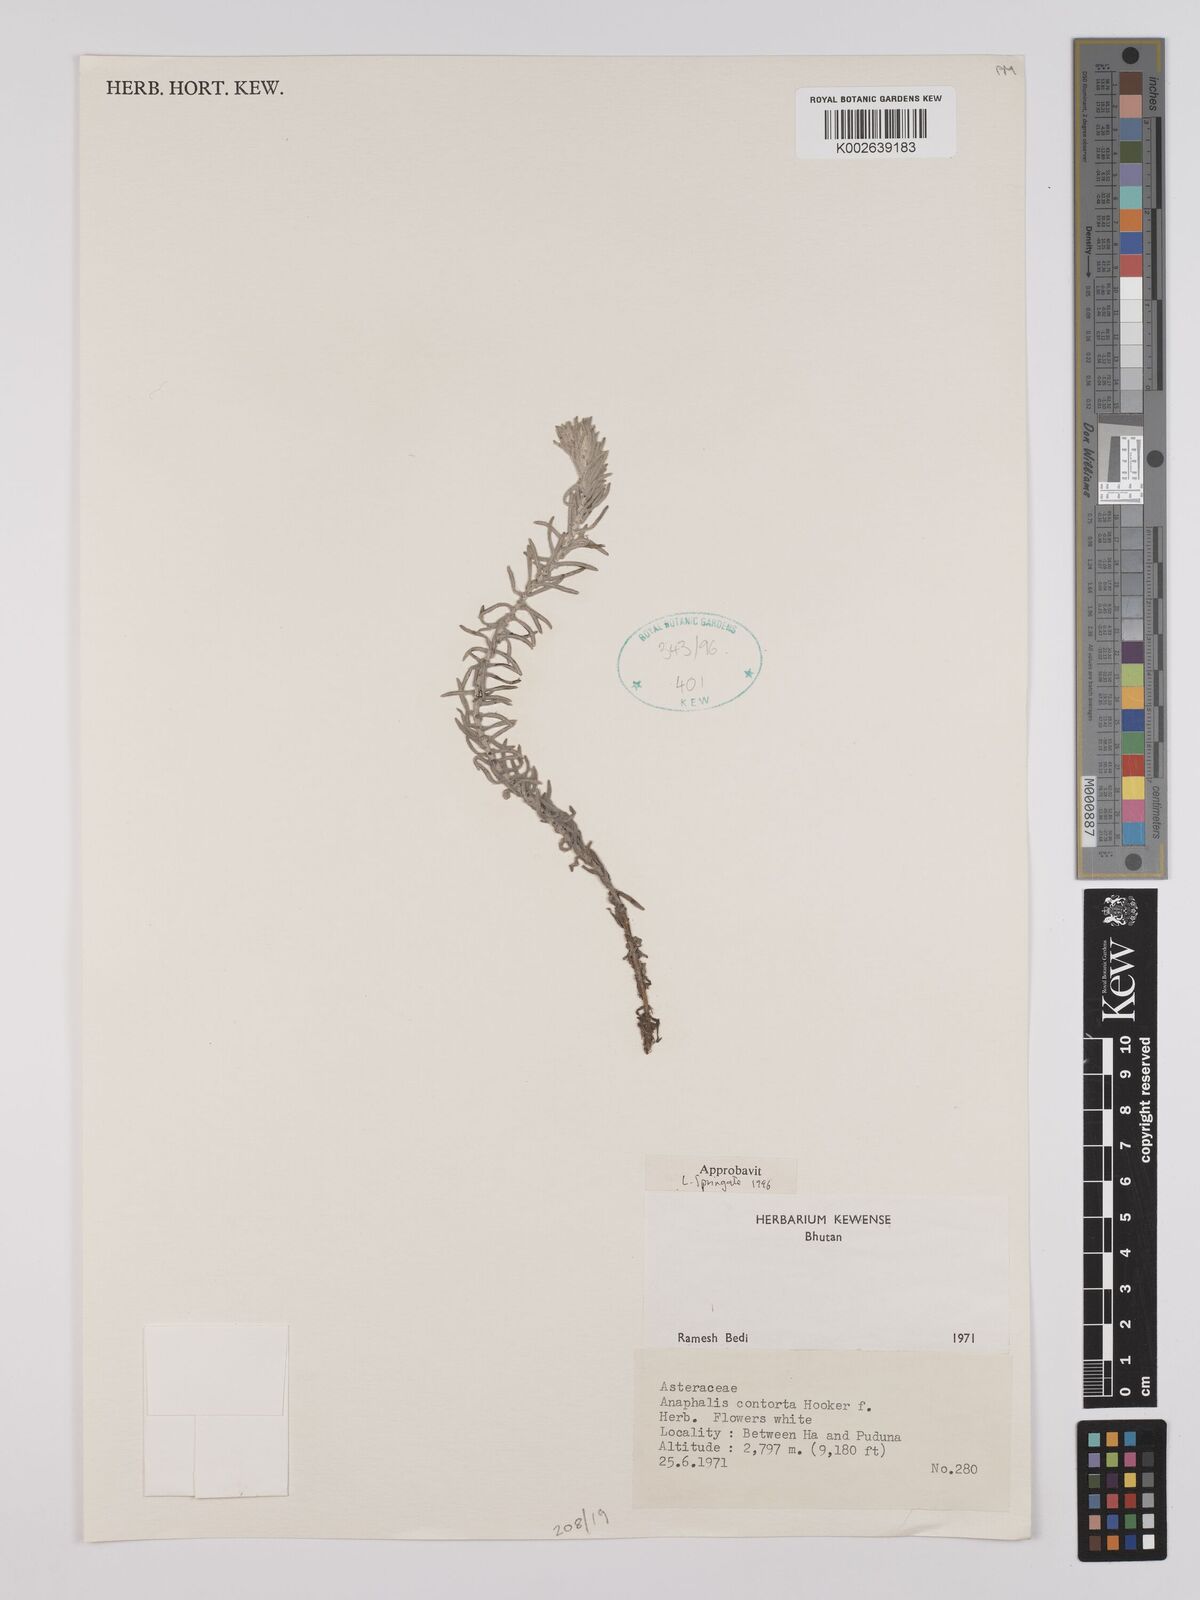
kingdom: Plantae
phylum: Tracheophyta
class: Magnoliopsida
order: Asterales
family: Asteraceae
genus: Anaphalis
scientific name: Anaphalis contorta
